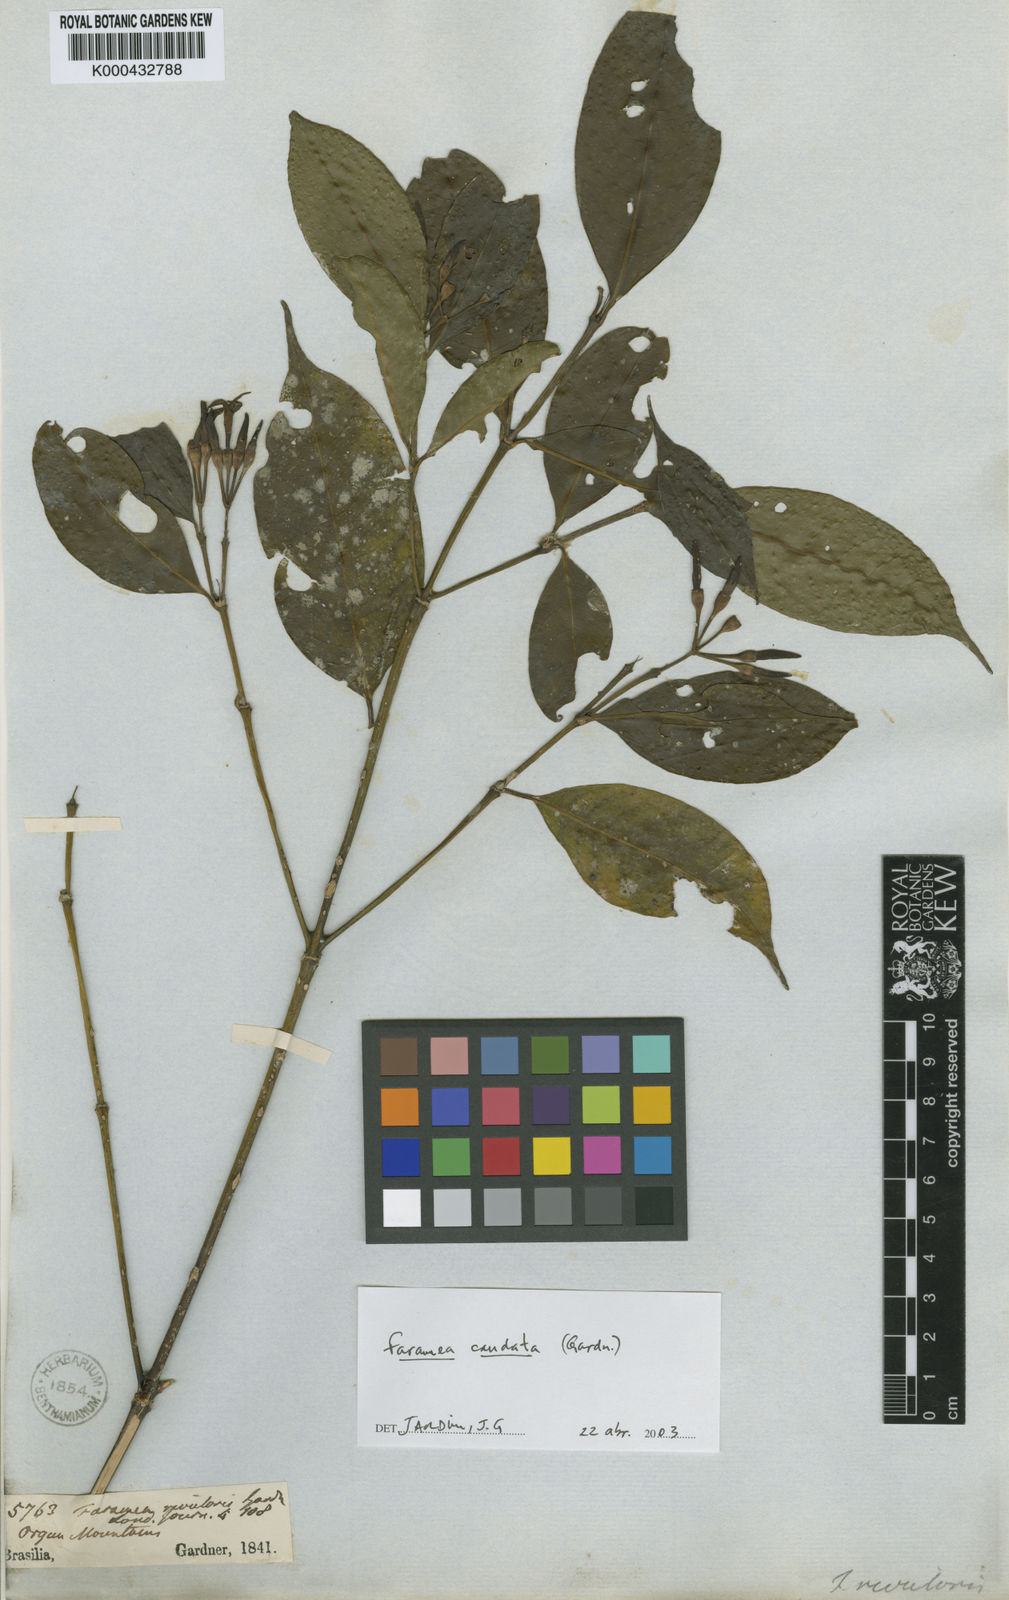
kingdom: Plantae
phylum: Tracheophyta
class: Magnoliopsida
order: Gentianales
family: Rubiaceae
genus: Faramea
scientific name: Faramea caudata
